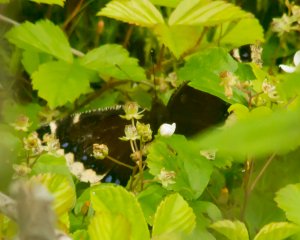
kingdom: Animalia
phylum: Arthropoda
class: Insecta
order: Lepidoptera
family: Nymphalidae
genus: Nymphalis
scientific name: Nymphalis antiopa
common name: Mourning Cloak
